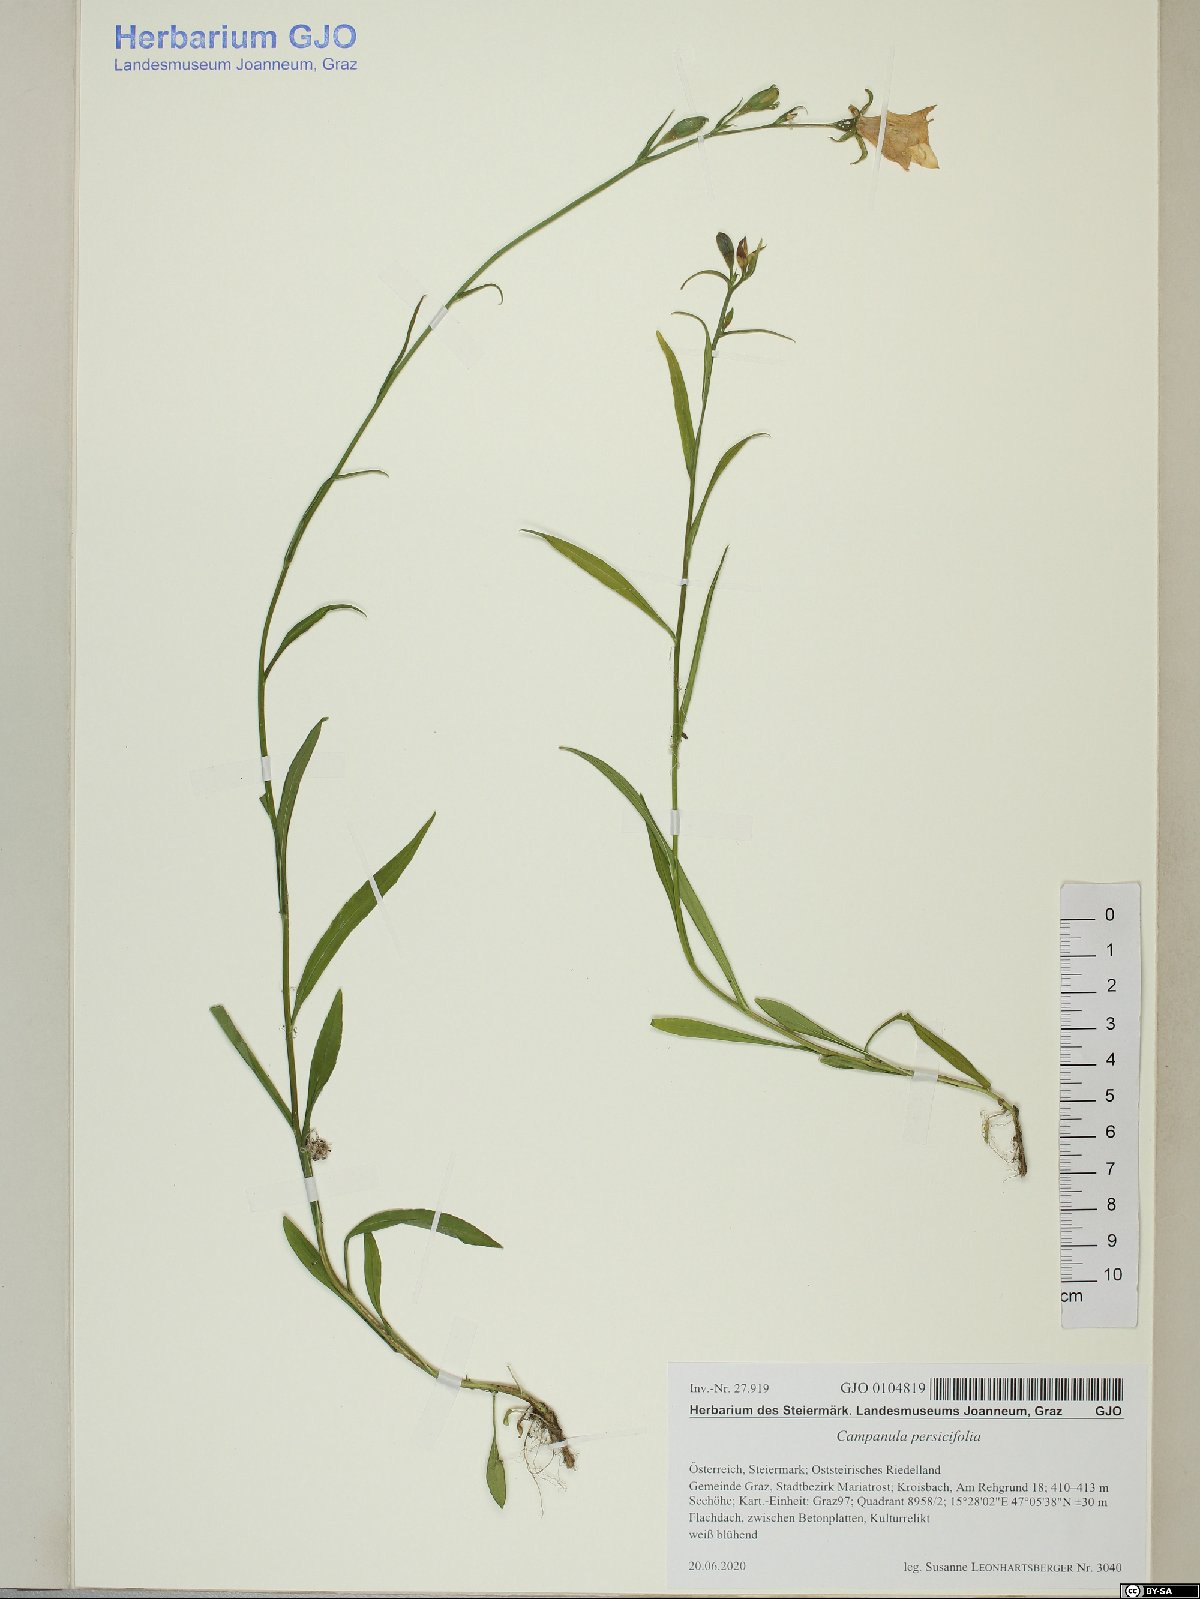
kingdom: Plantae
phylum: Tracheophyta
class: Magnoliopsida
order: Asterales
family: Campanulaceae
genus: Campanula
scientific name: Campanula persicifolia
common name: Peach-leaved bellflower
